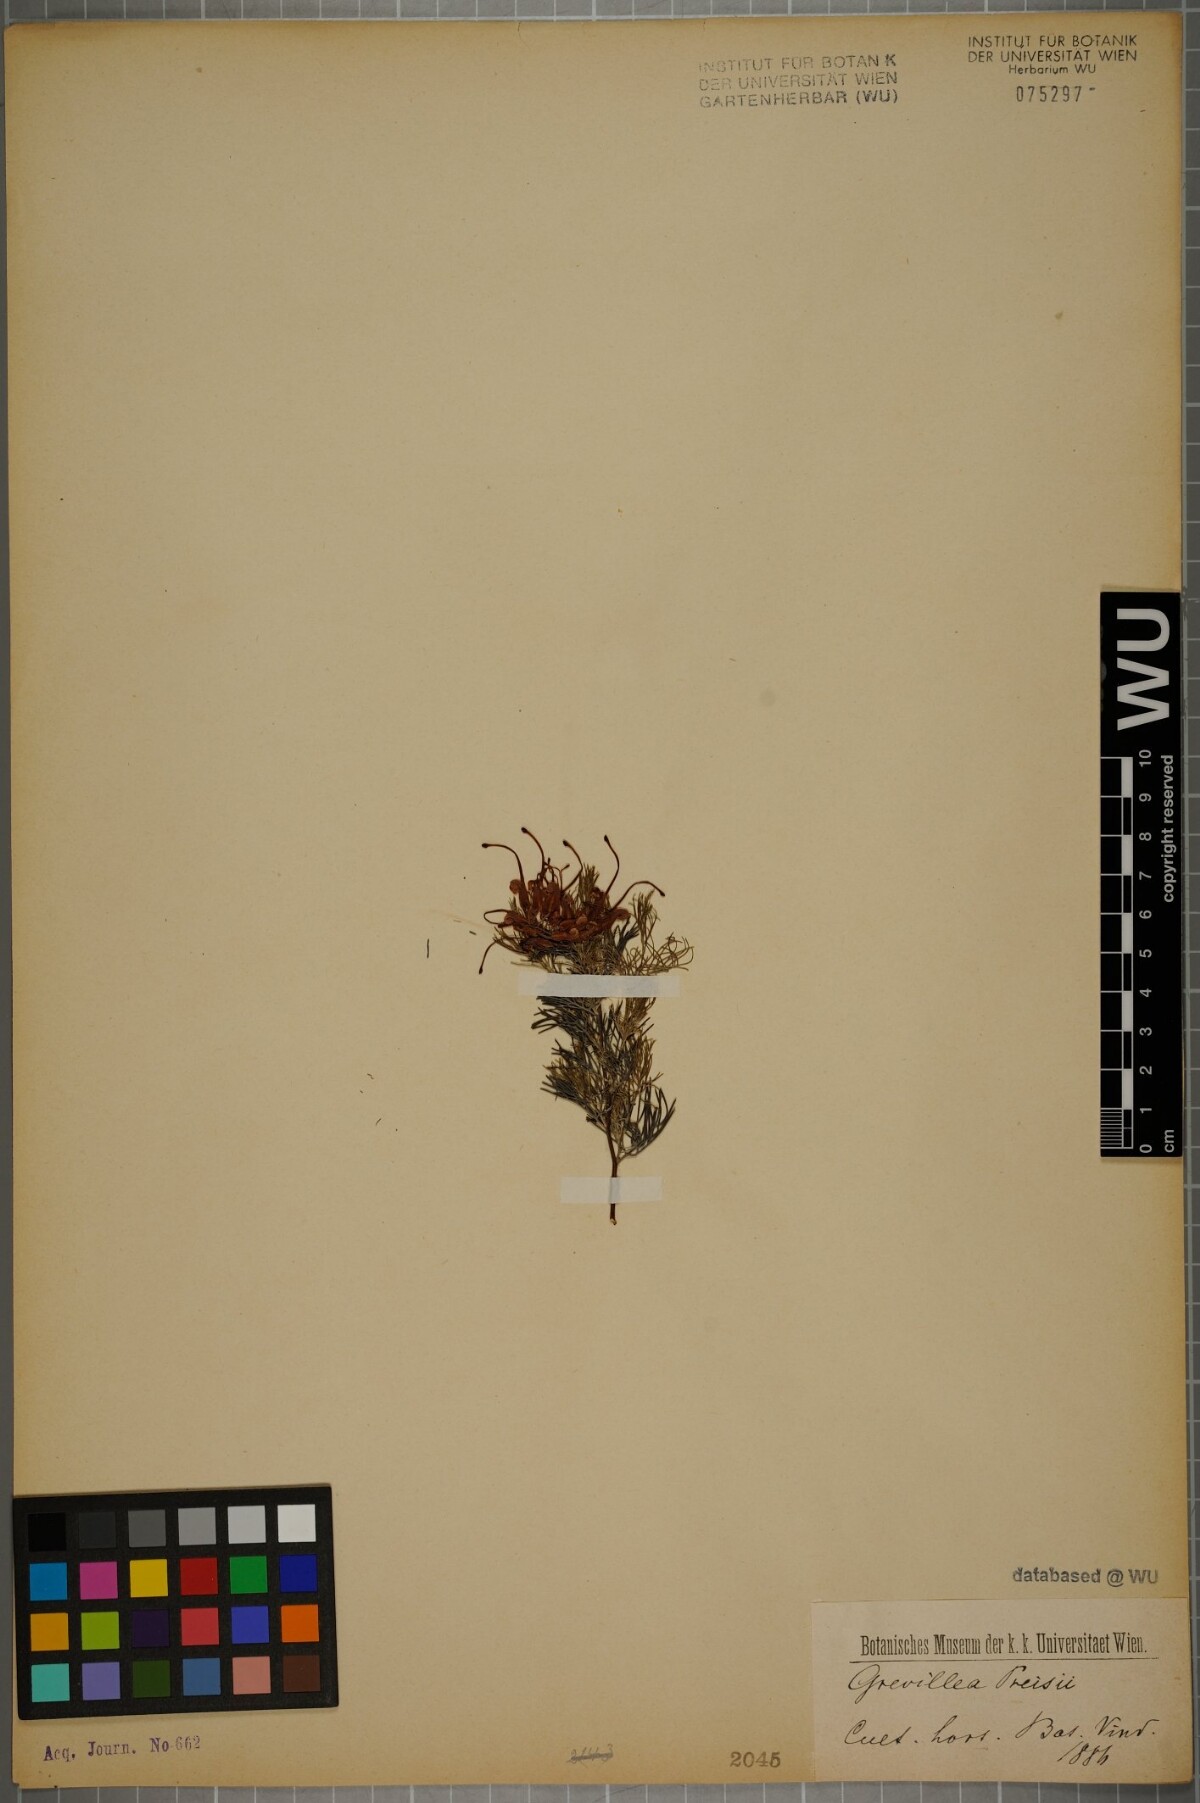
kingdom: Plantae
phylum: Tracheophyta
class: Magnoliopsida
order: Proteales
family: Proteaceae
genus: Grevillea
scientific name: Grevillea thelemanniana
